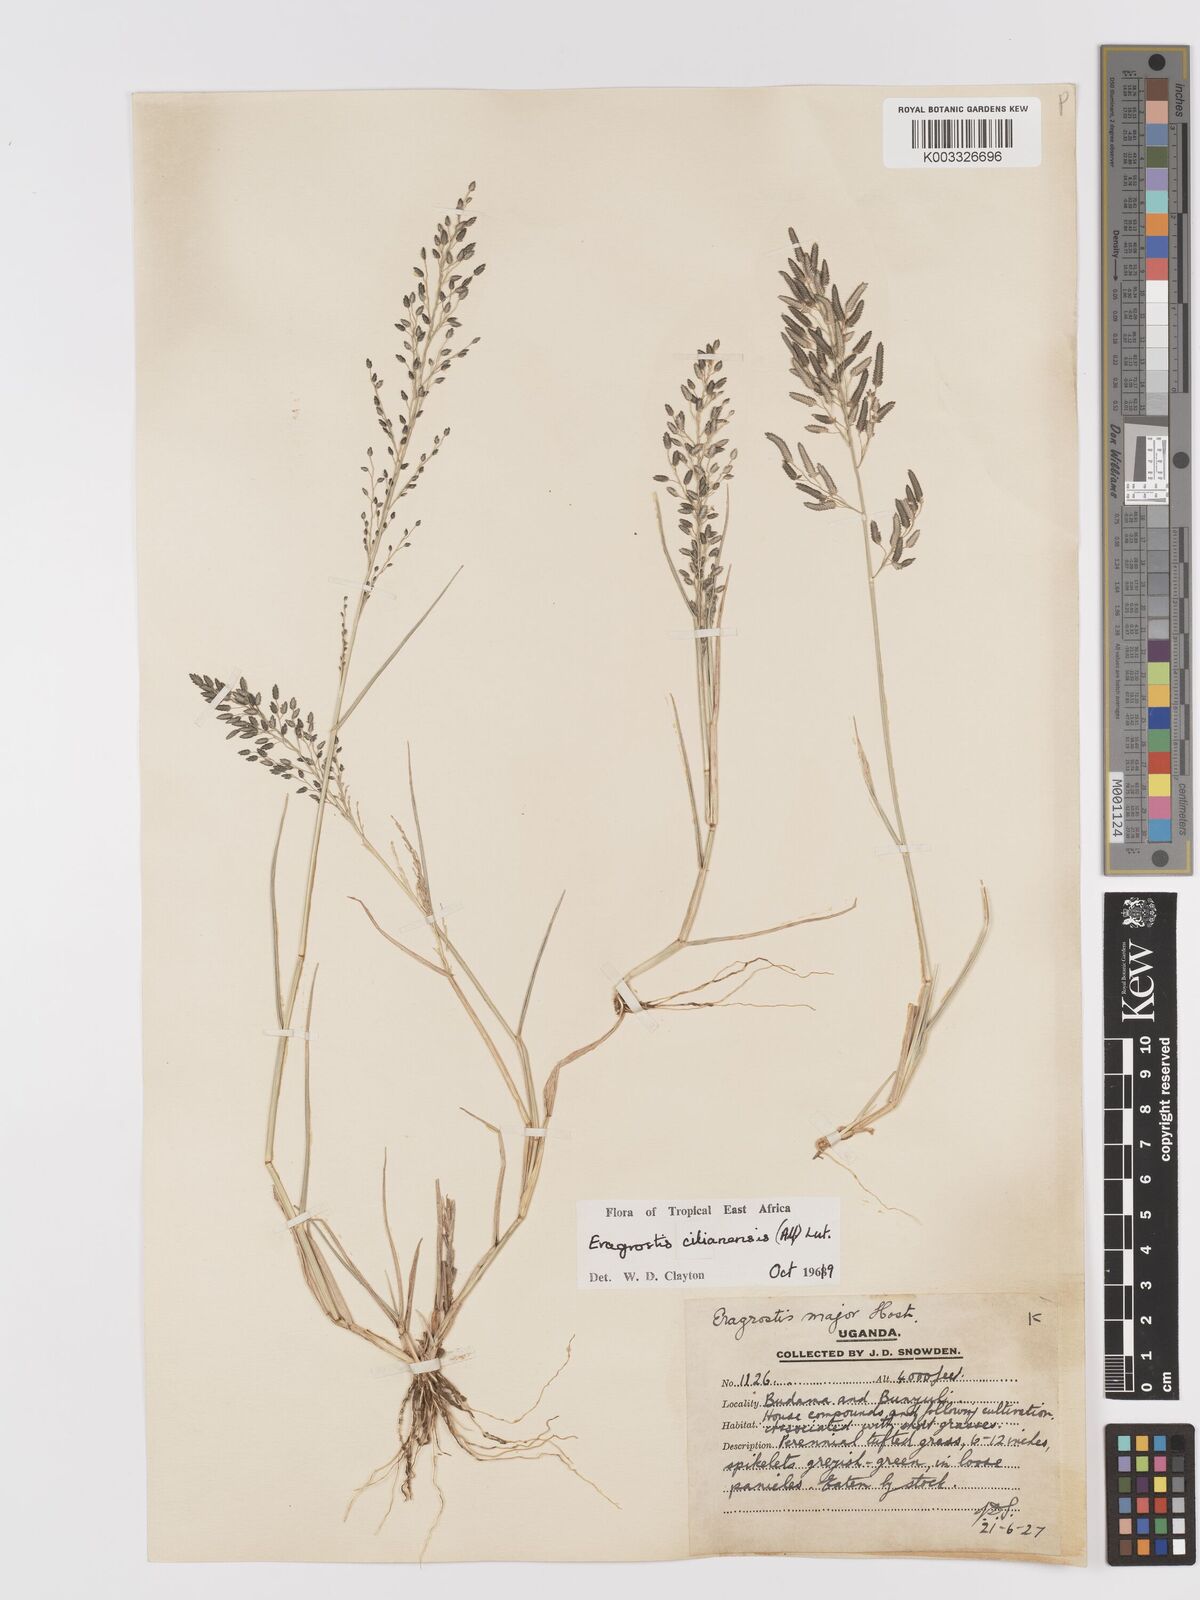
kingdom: Plantae
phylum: Tracheophyta
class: Liliopsida
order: Poales
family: Poaceae
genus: Eragrostis
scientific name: Eragrostis cilianensis
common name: Stinkgrass
